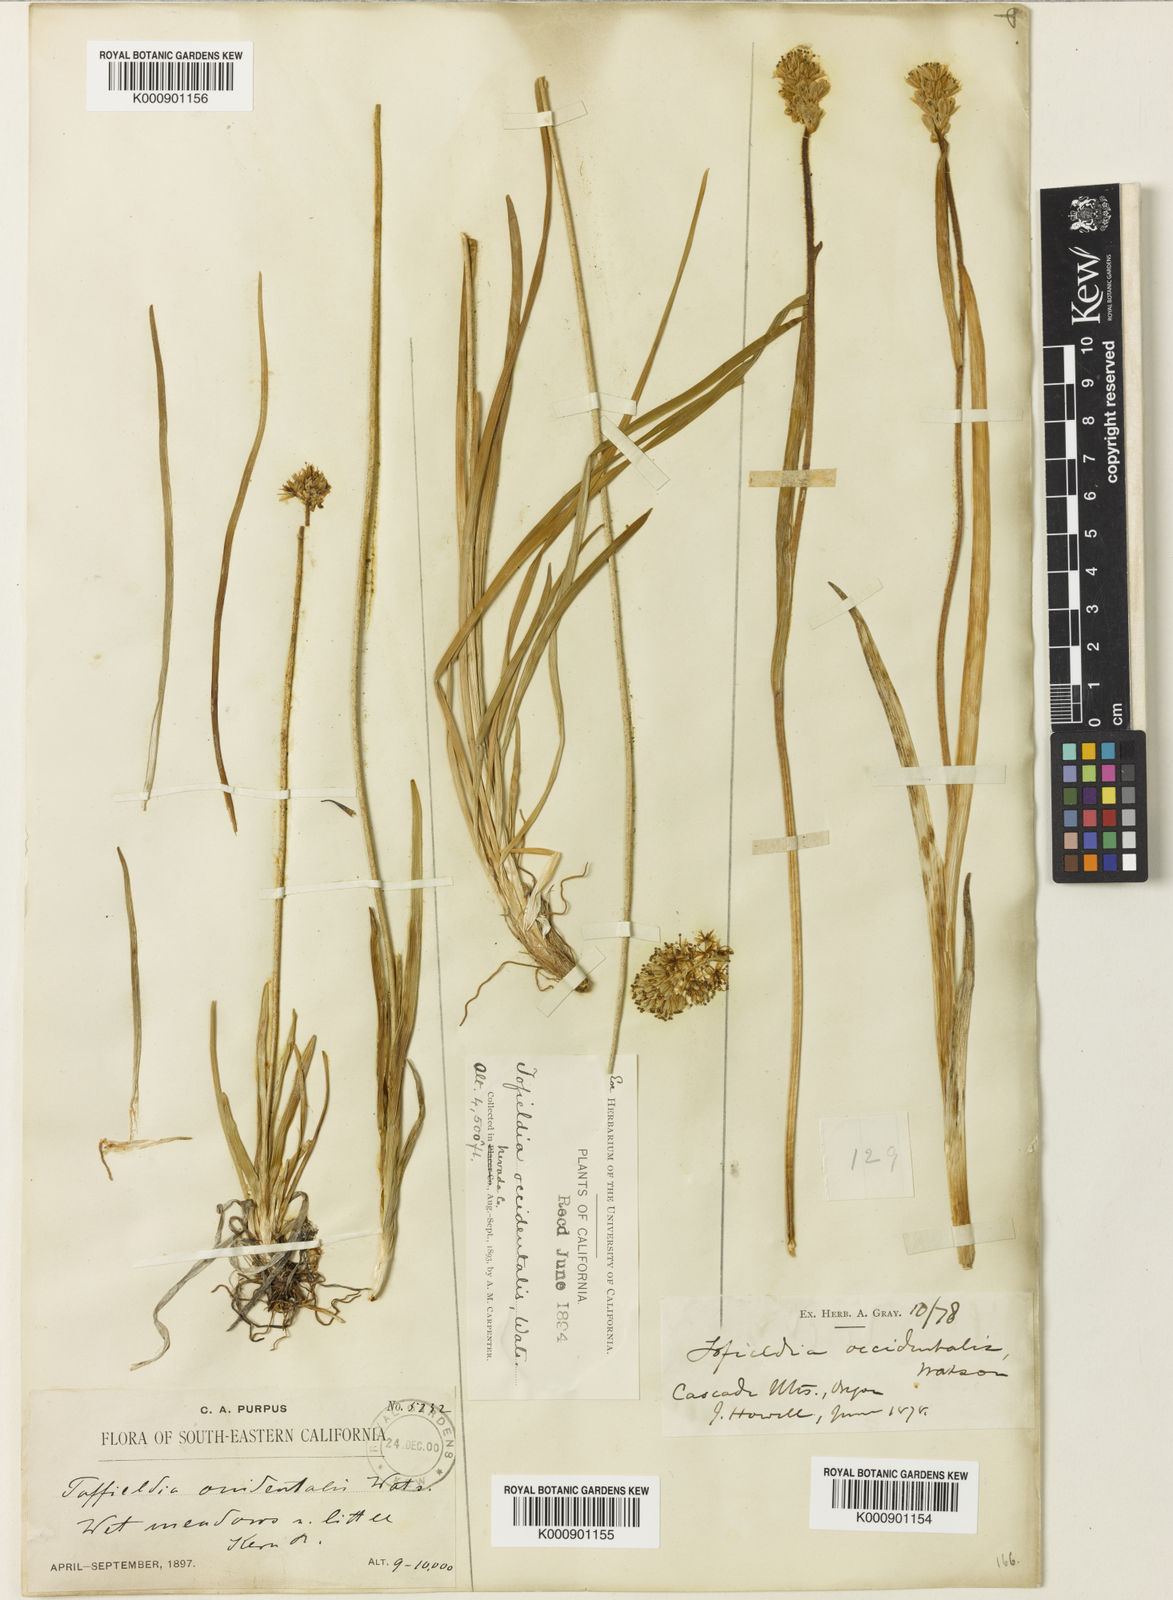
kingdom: Plantae
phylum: Tracheophyta
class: Liliopsida
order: Alismatales
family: Tofieldiaceae
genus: Triantha
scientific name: Triantha occidentalis
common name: Western false asphodel
